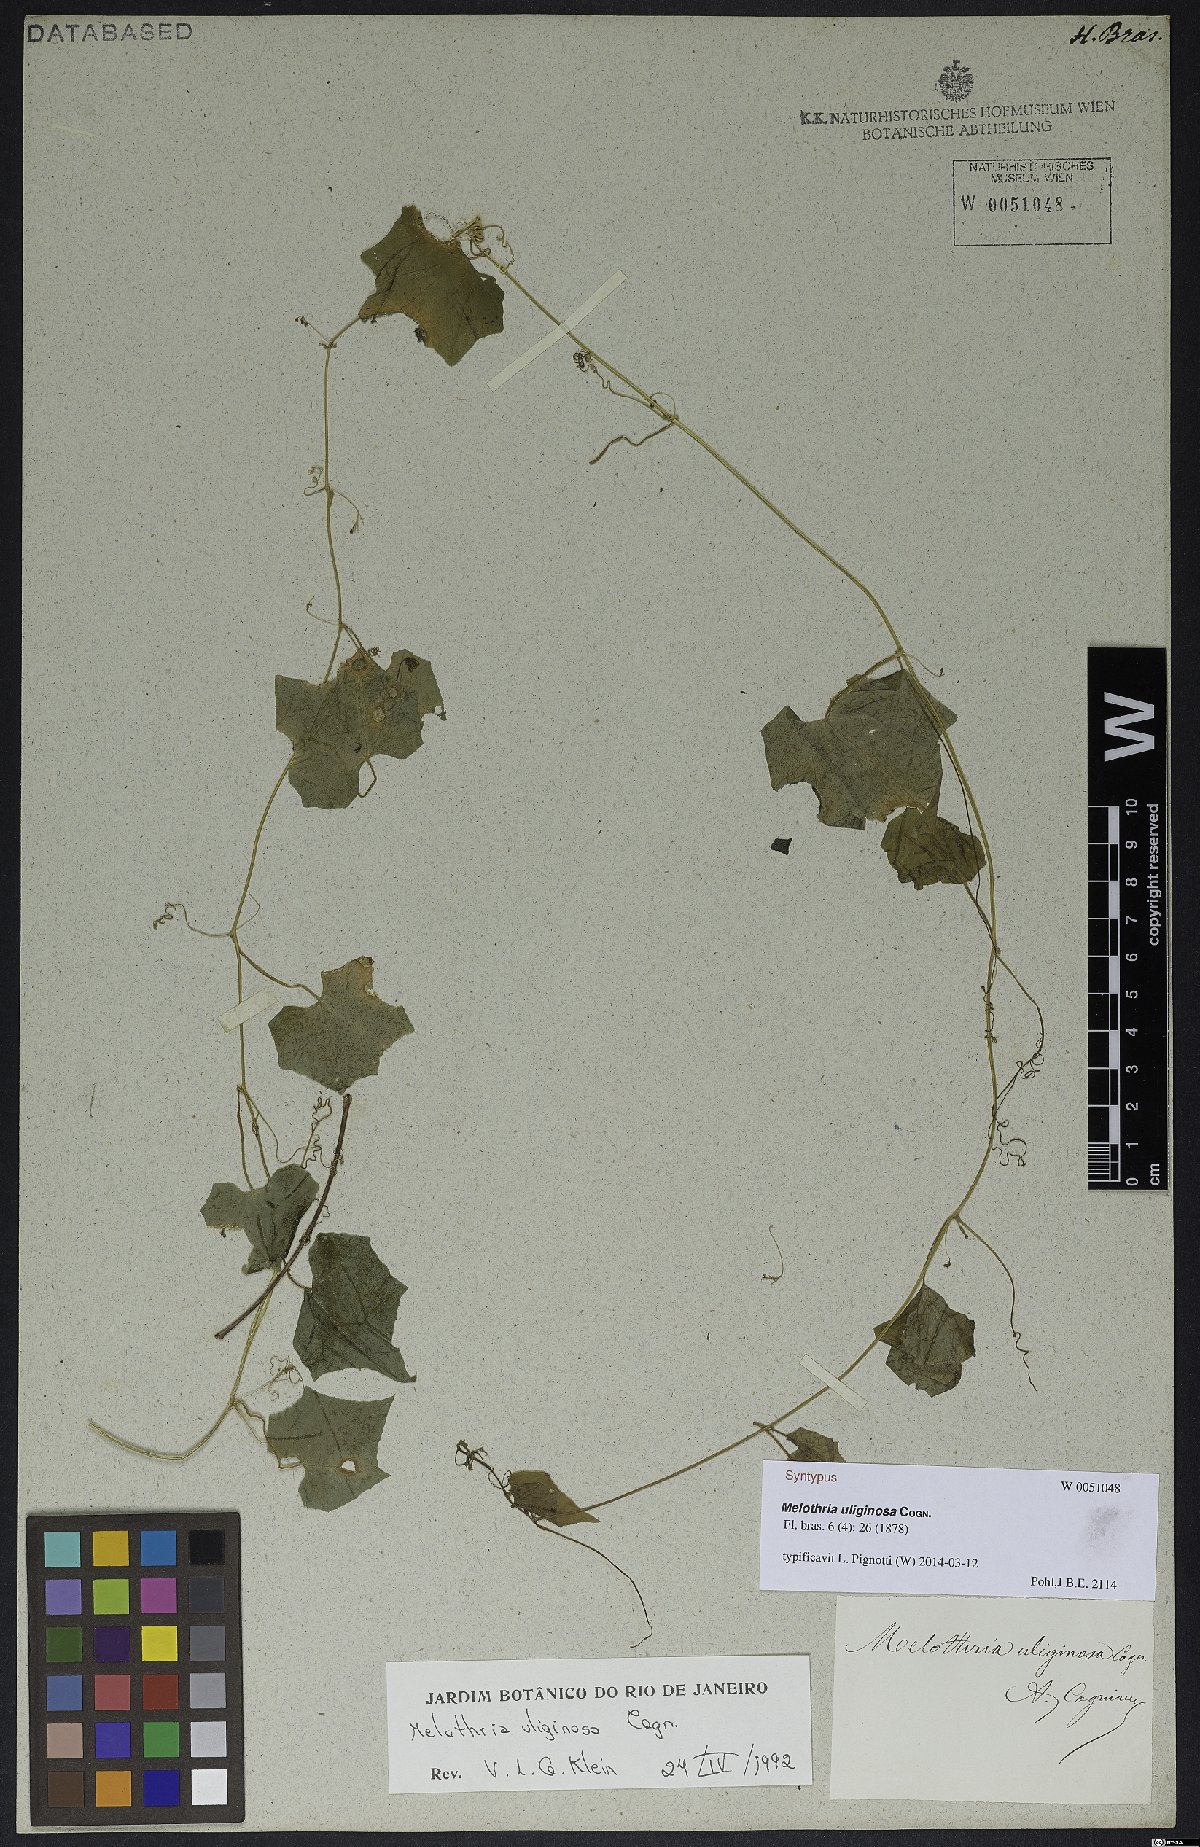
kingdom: Plantae
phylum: Tracheophyta
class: Magnoliopsida
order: Cucurbitales
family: Cucurbitaceae
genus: Melothria
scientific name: Melothria uliginosa
